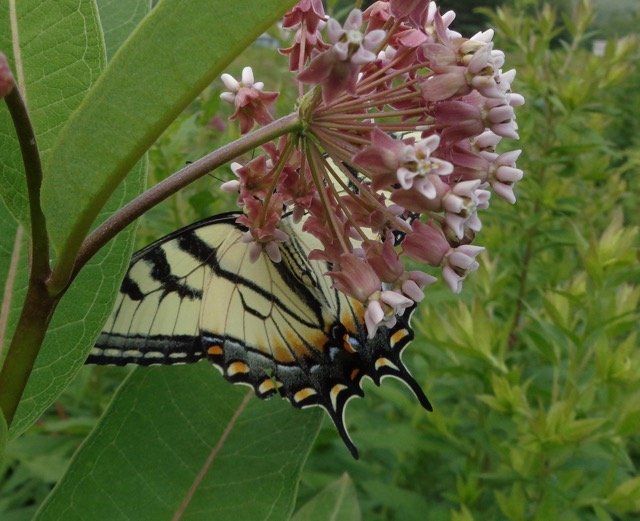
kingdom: Animalia
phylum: Arthropoda
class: Insecta
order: Lepidoptera
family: Papilionidae
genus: Pterourus
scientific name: Pterourus
